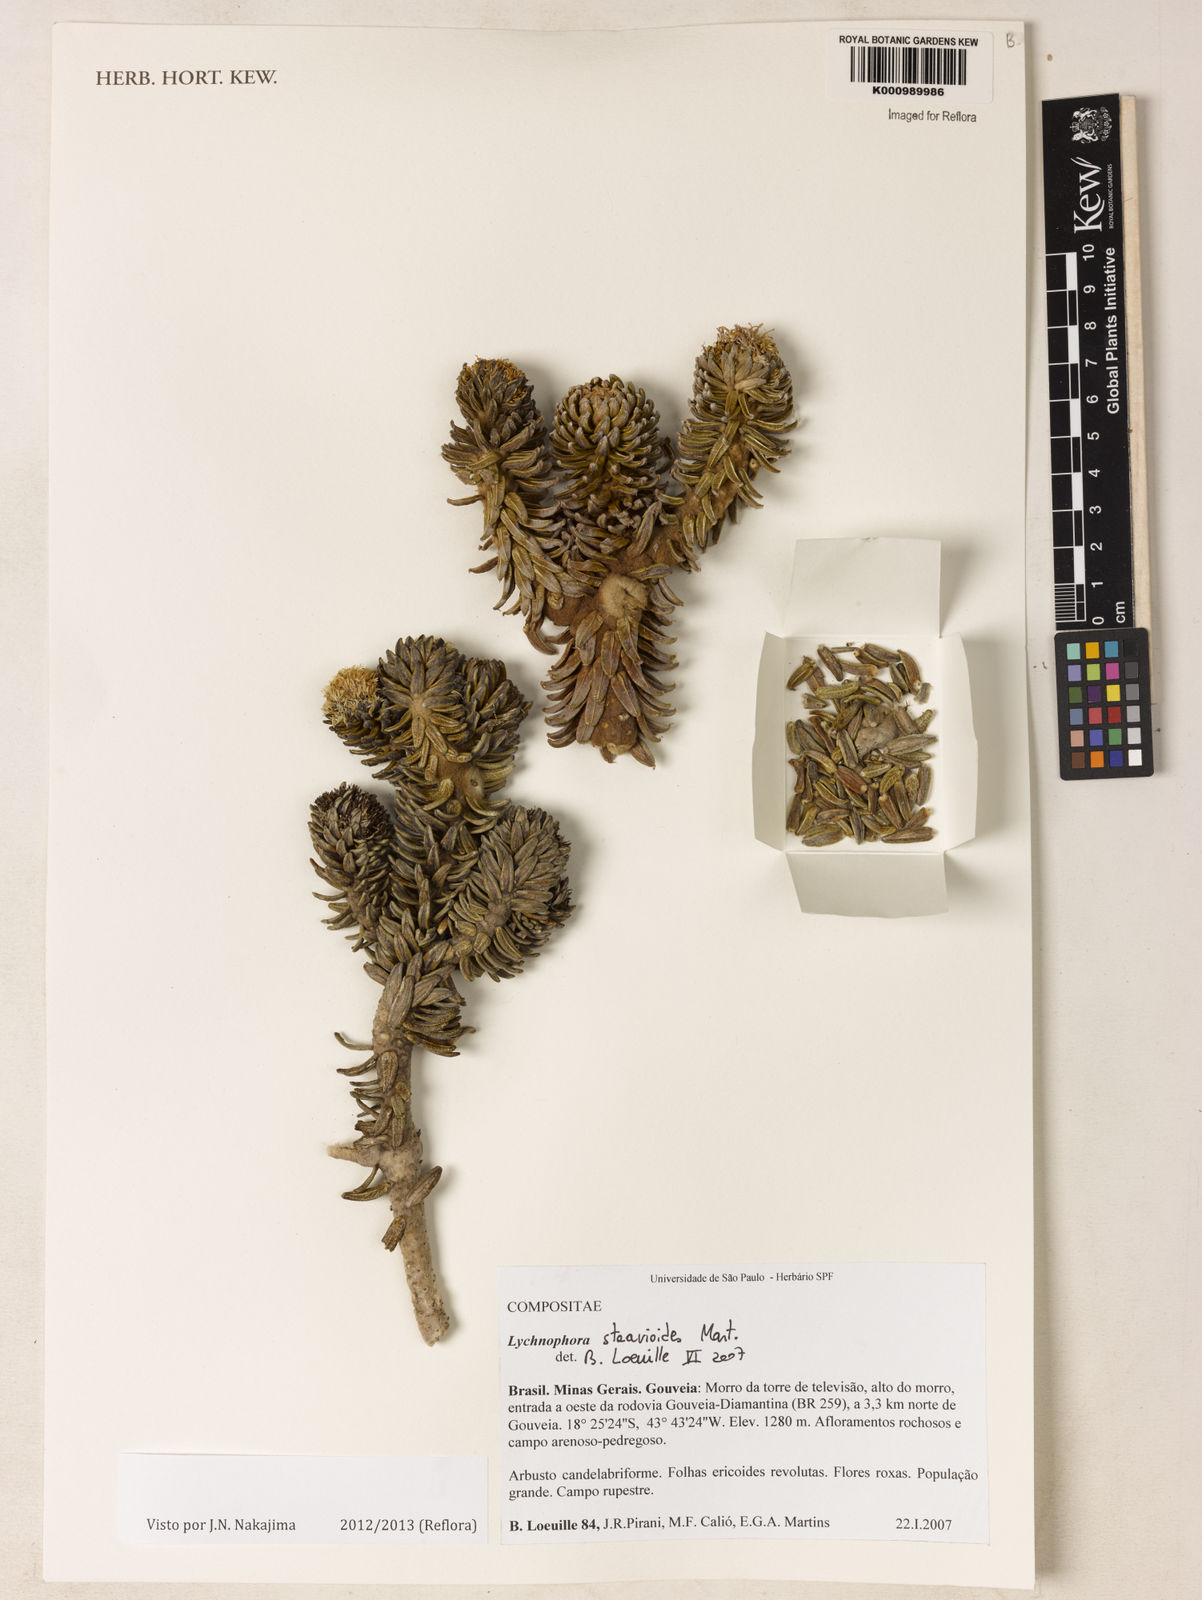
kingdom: Plantae
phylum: Tracheophyta
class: Magnoliopsida
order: Asterales
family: Asteraceae
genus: Lychnophora
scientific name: Lychnophora staavioides
